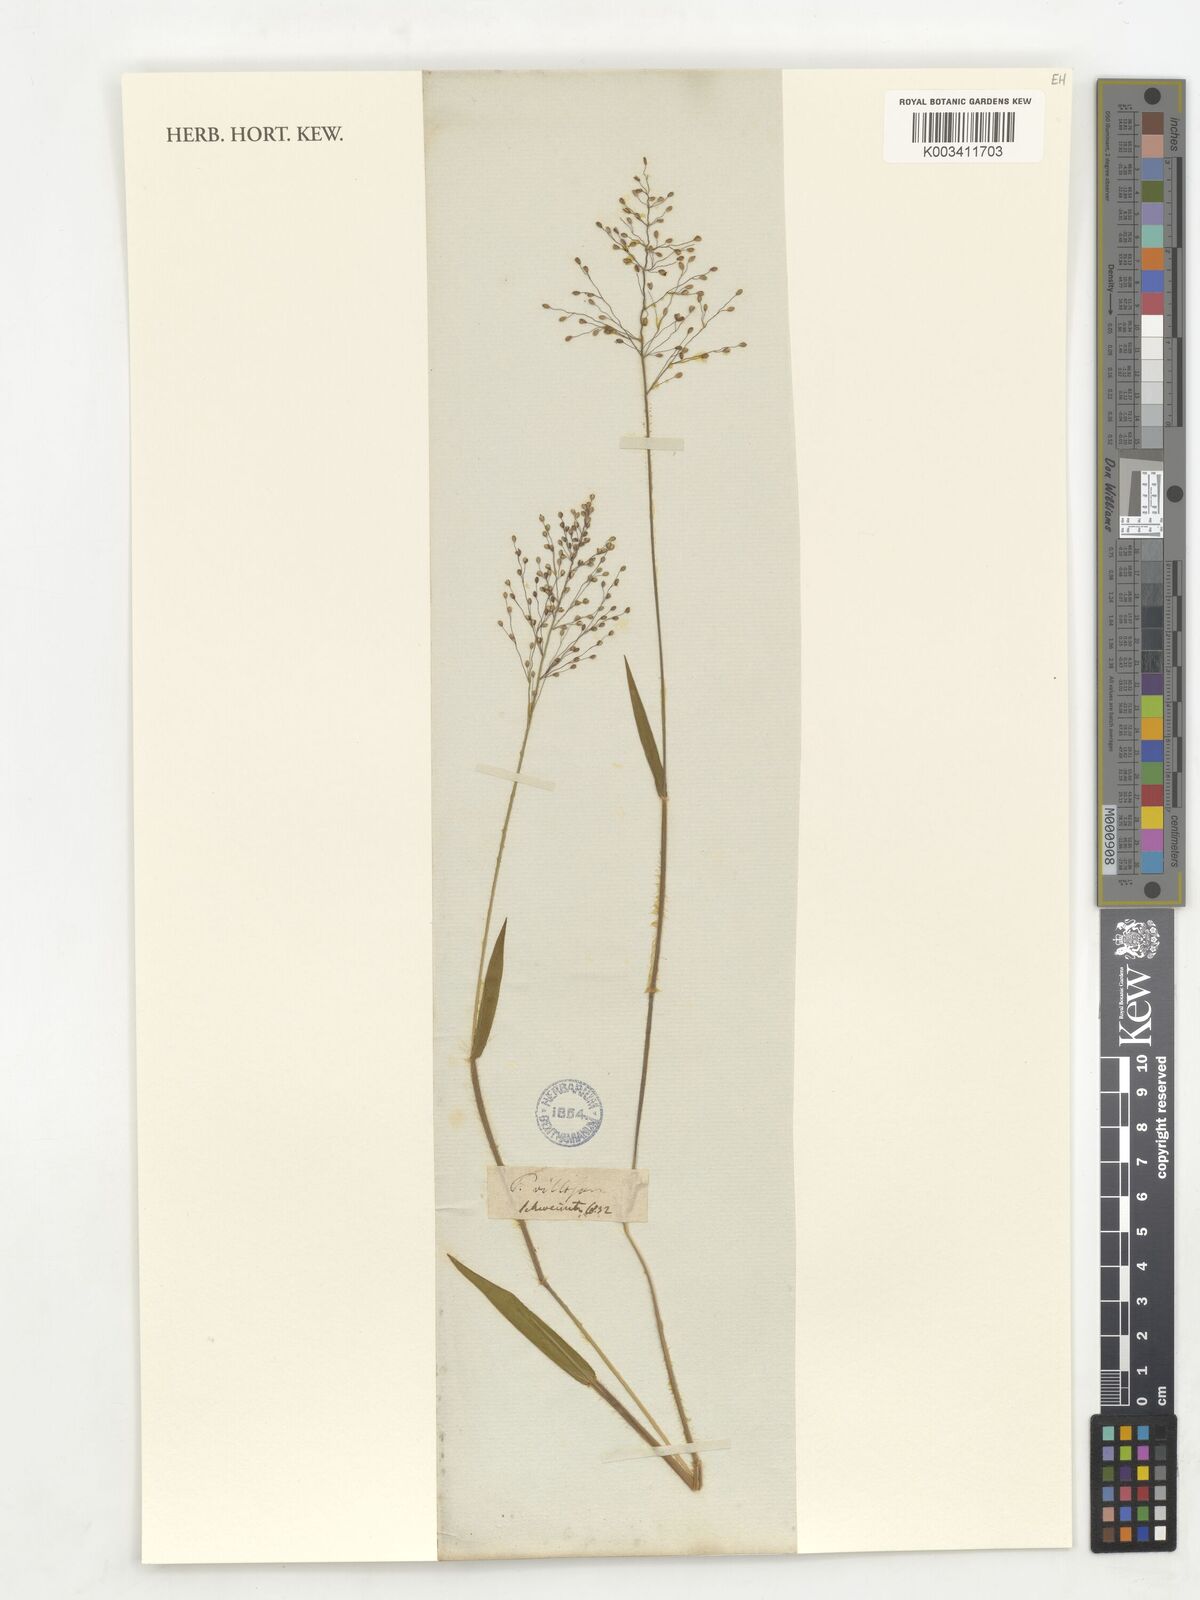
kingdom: Plantae
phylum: Tracheophyta
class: Liliopsida
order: Poales
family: Poaceae
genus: Panicum
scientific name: Panicum
